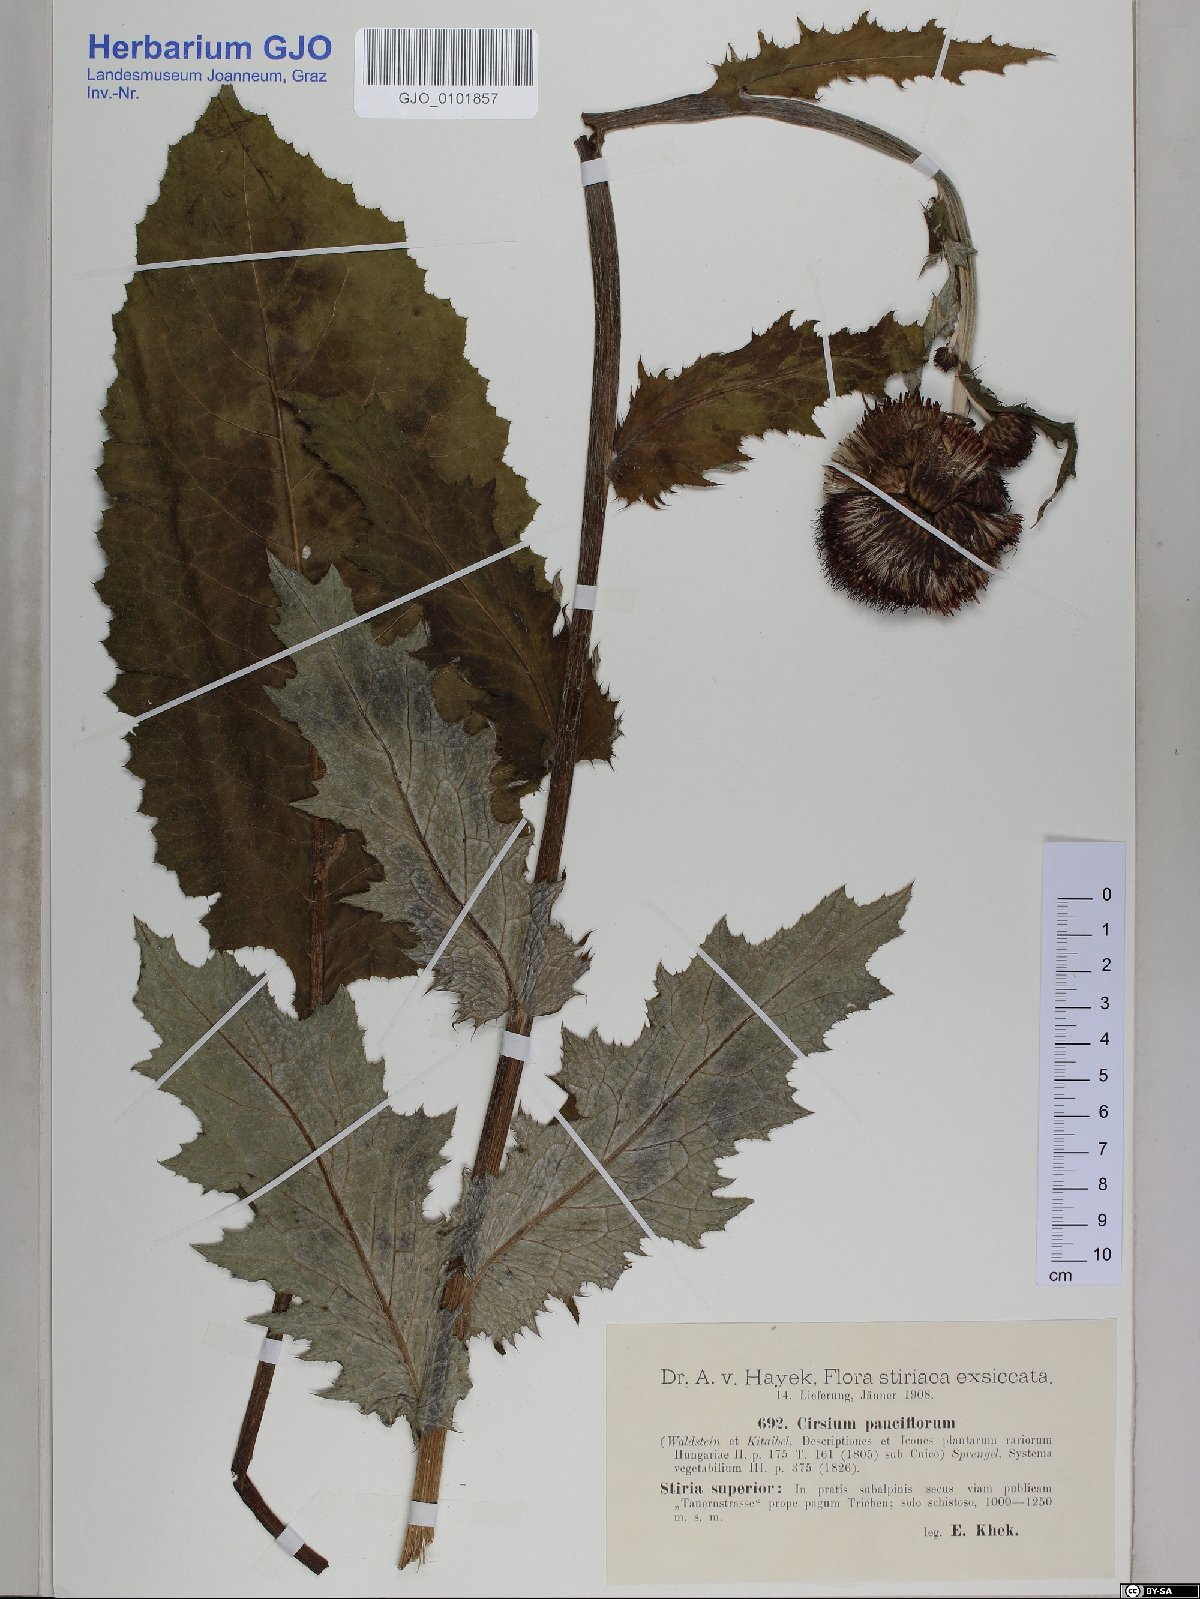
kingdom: Plantae
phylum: Tracheophyta
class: Magnoliopsida
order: Asterales
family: Asteraceae
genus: Cirsium
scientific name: Cirsium waldsteinii
